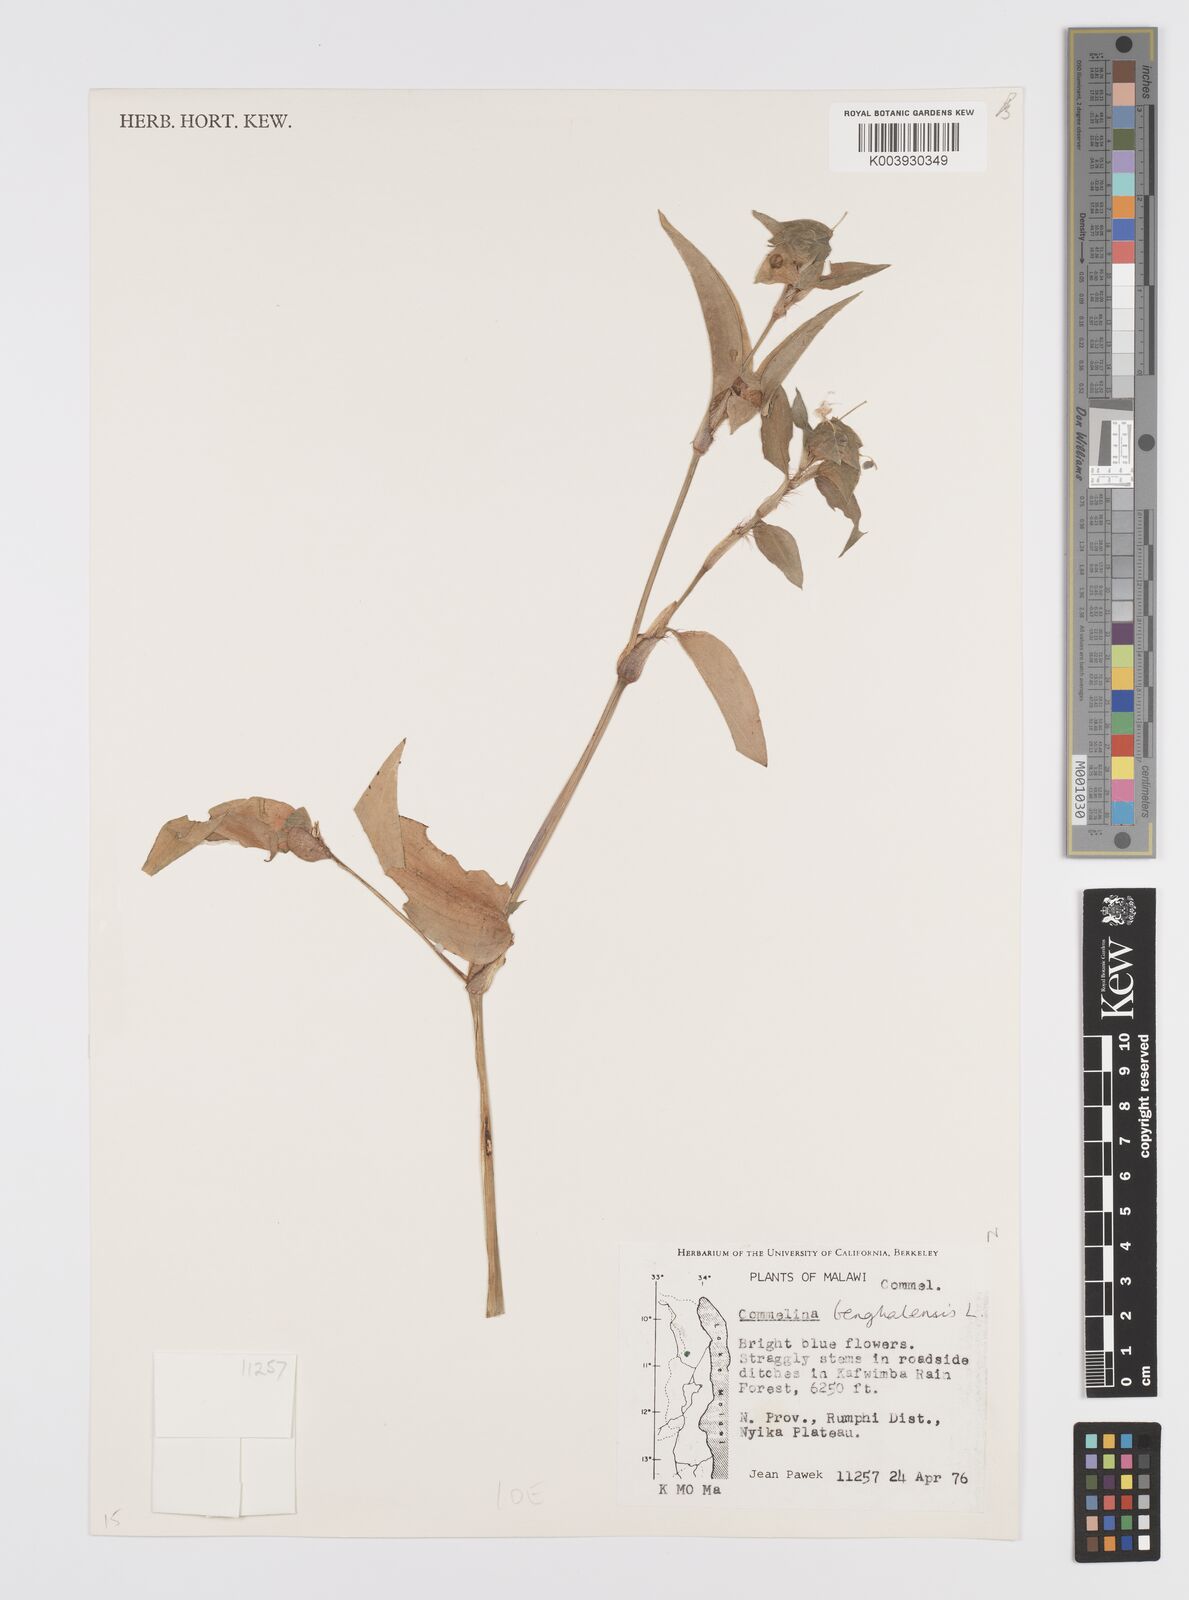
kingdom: Plantae
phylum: Tracheophyta
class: Liliopsida
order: Commelinales
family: Commelinaceae
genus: Commelina
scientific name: Commelina benghalensis
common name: Jio
